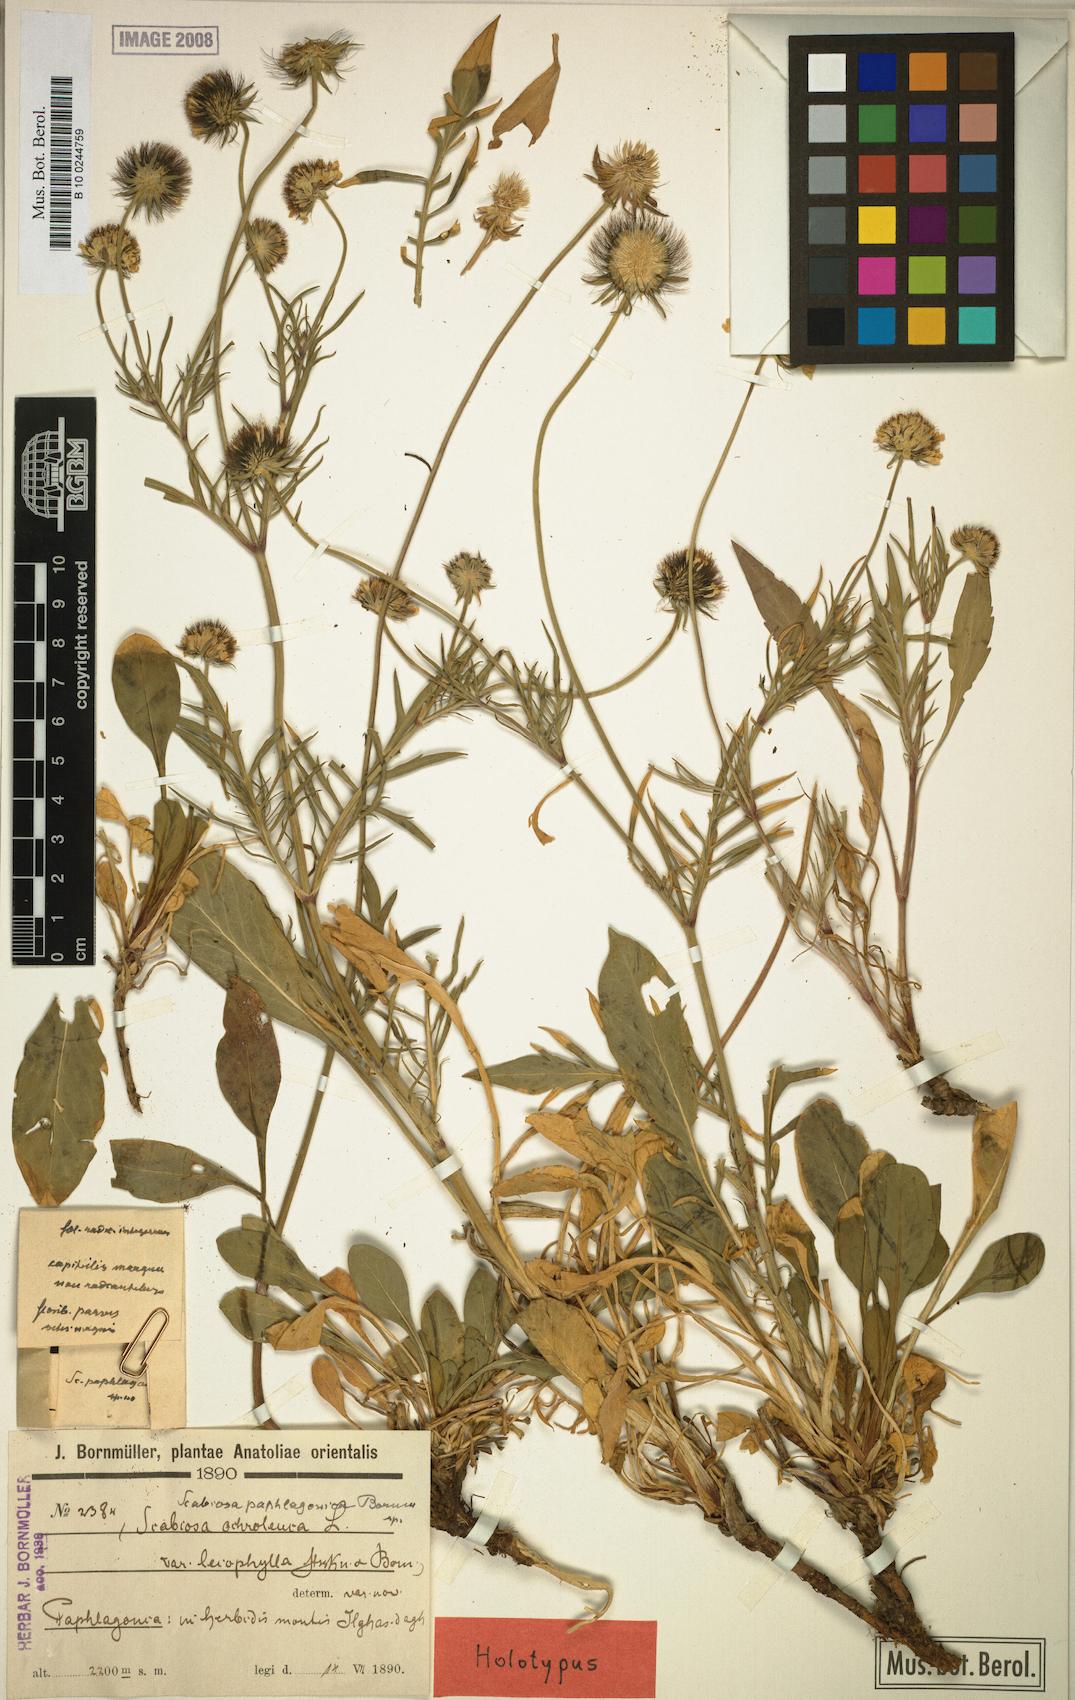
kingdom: Plantae
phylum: Tracheophyta
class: Magnoliopsida
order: Dipsacales
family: Caprifoliaceae
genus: Scabiosa
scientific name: Scabiosa paphlagonica
